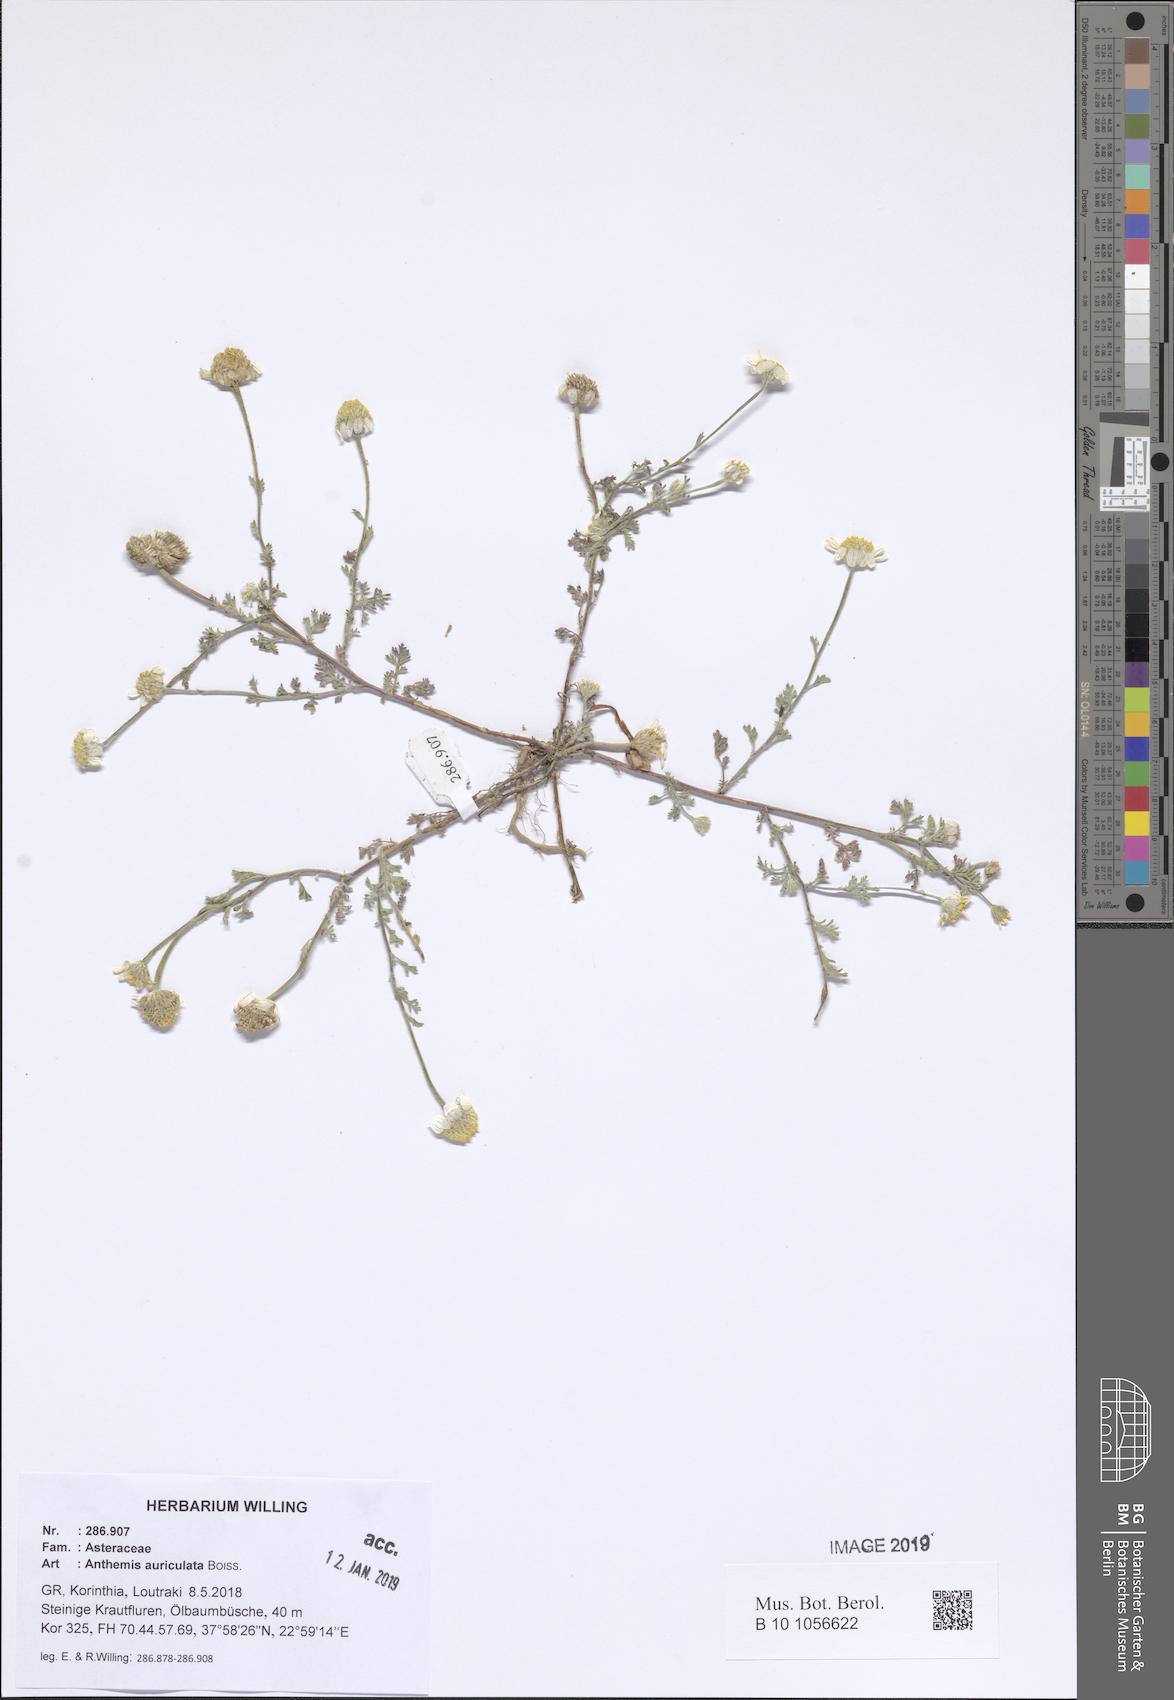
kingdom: Plantae
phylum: Tracheophyta
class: Magnoliopsida
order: Asterales
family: Asteraceae
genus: Anthemis
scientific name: Anthemis auriculata
